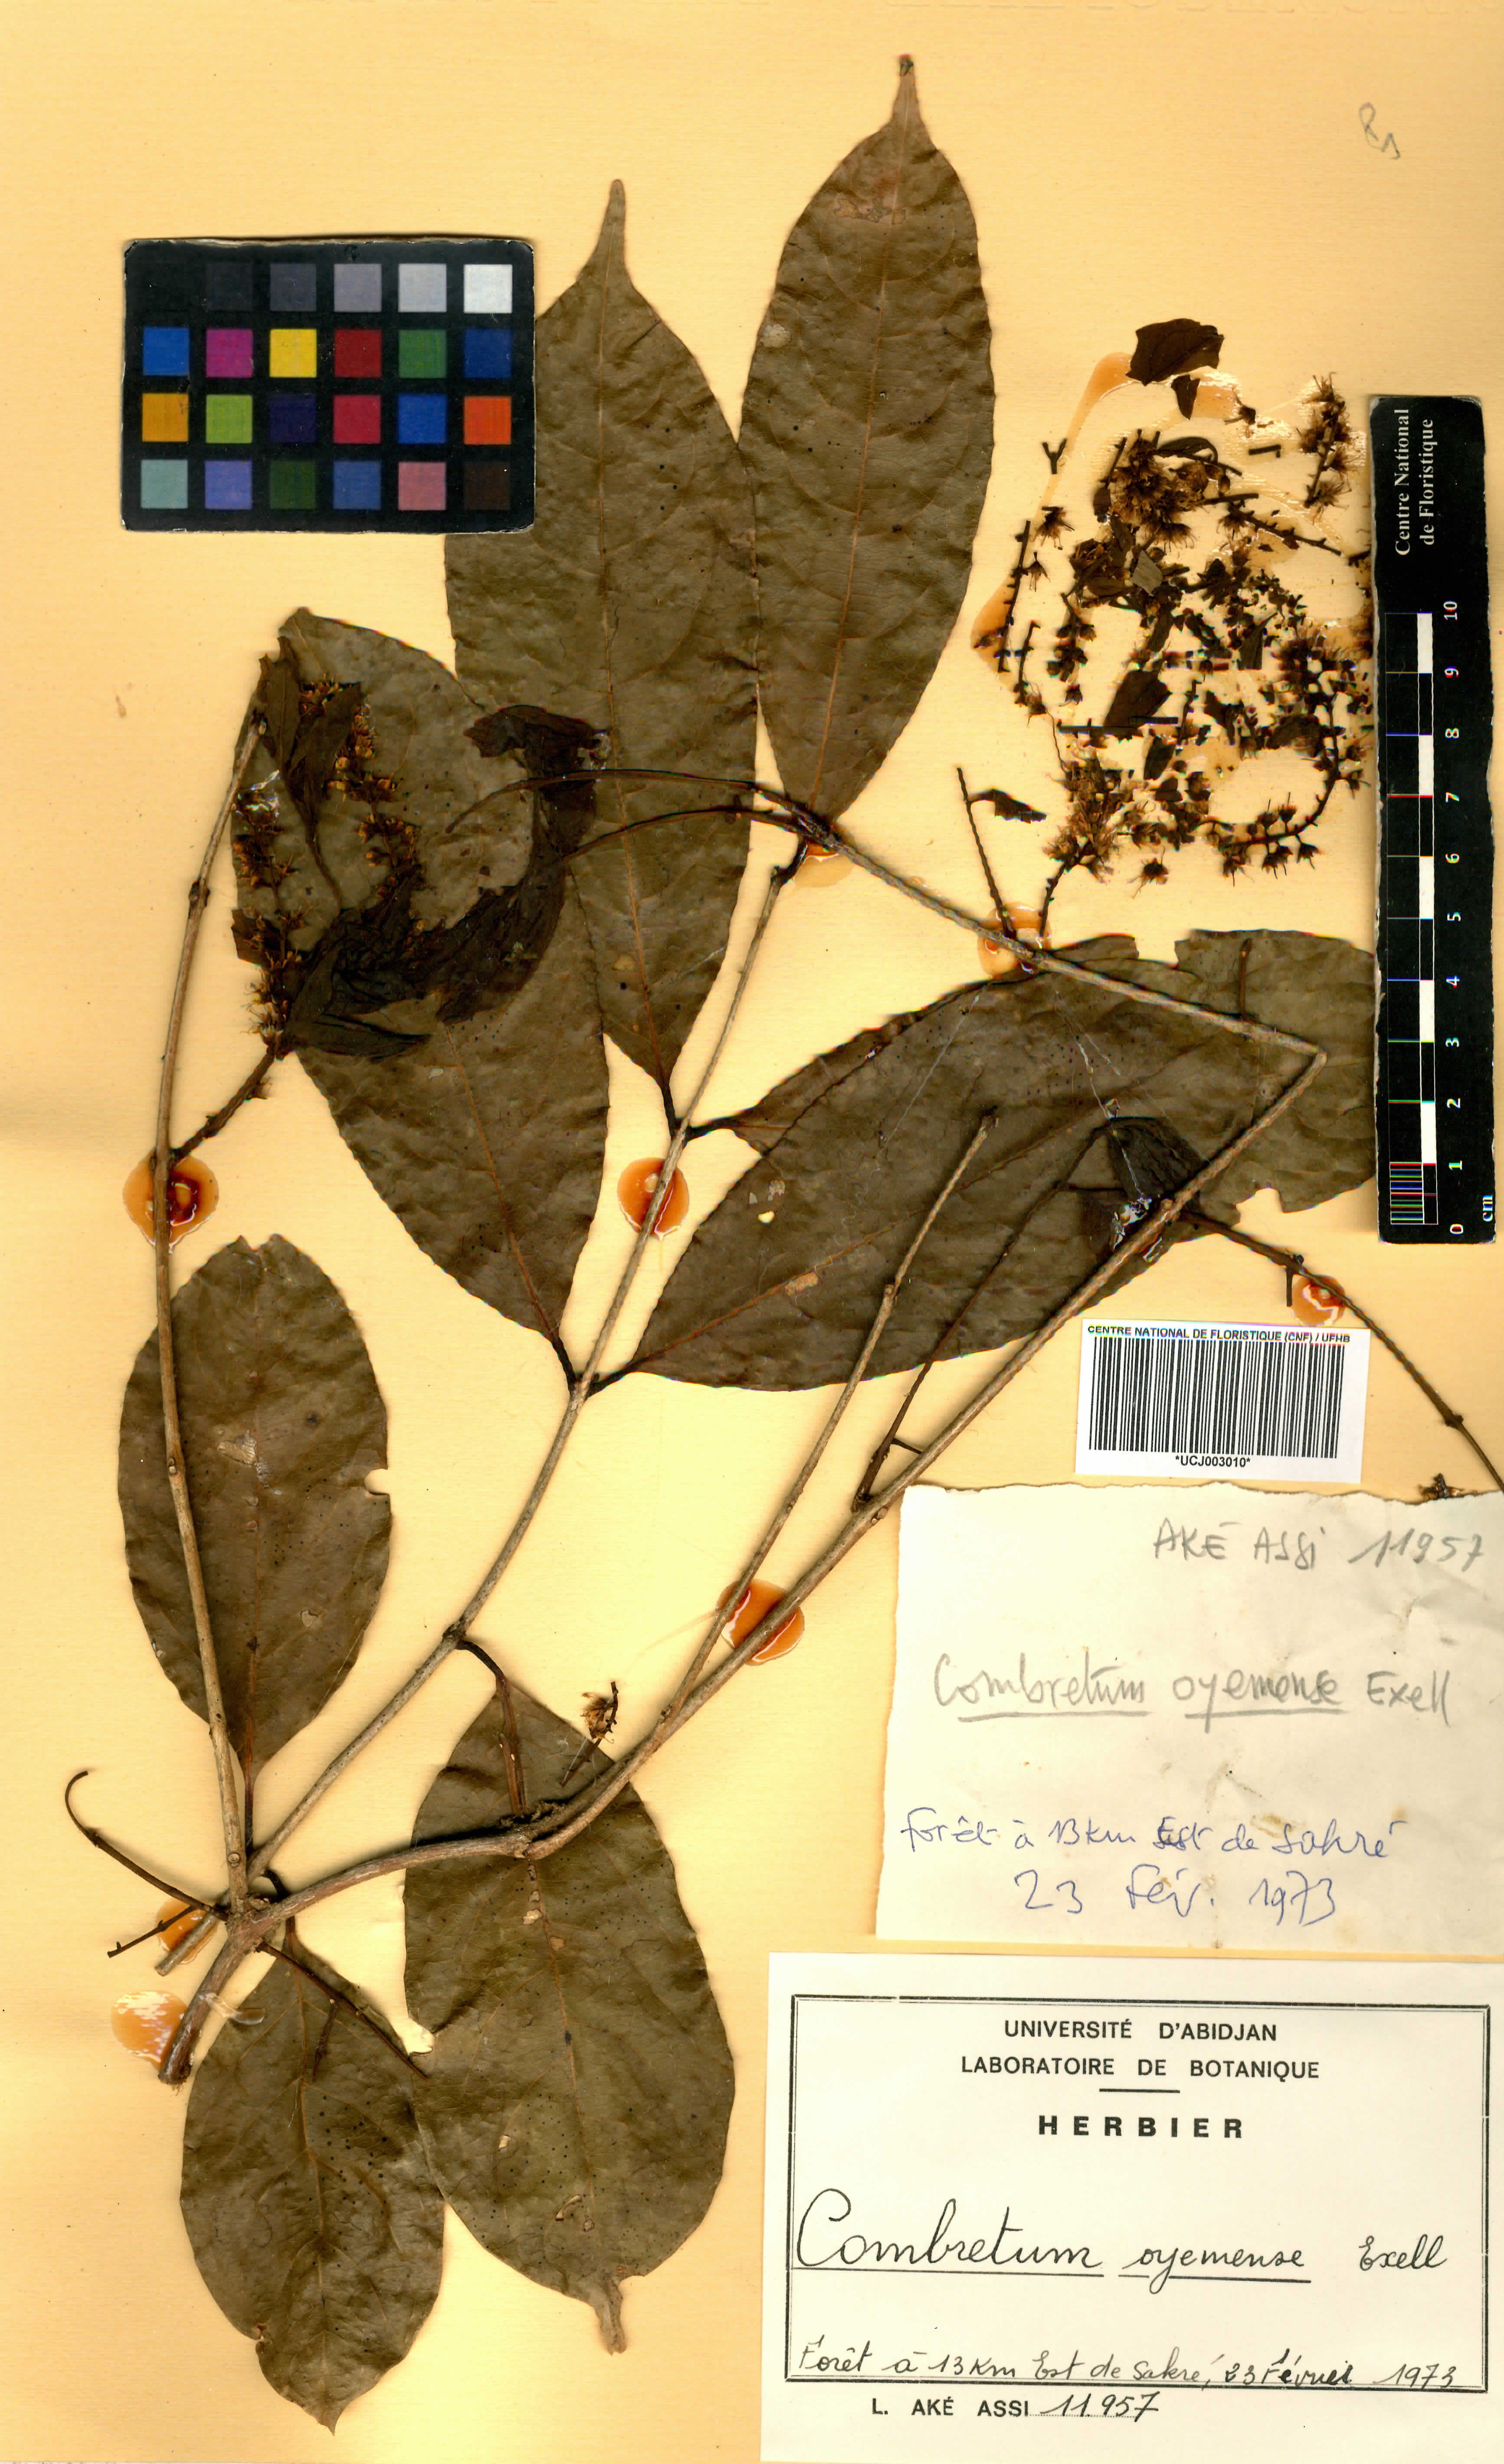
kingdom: Plantae
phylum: Tracheophyta
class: Magnoliopsida
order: Myrtales
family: Combretaceae
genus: Combretum
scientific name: Combretum oyemense
